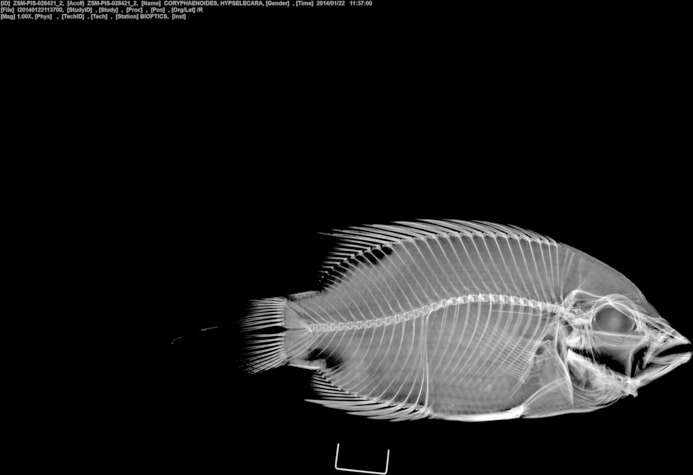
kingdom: Animalia
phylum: Chordata
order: Perciformes
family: Cichlidae
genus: Hypselecara
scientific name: Hypselecara coryphaenoides
